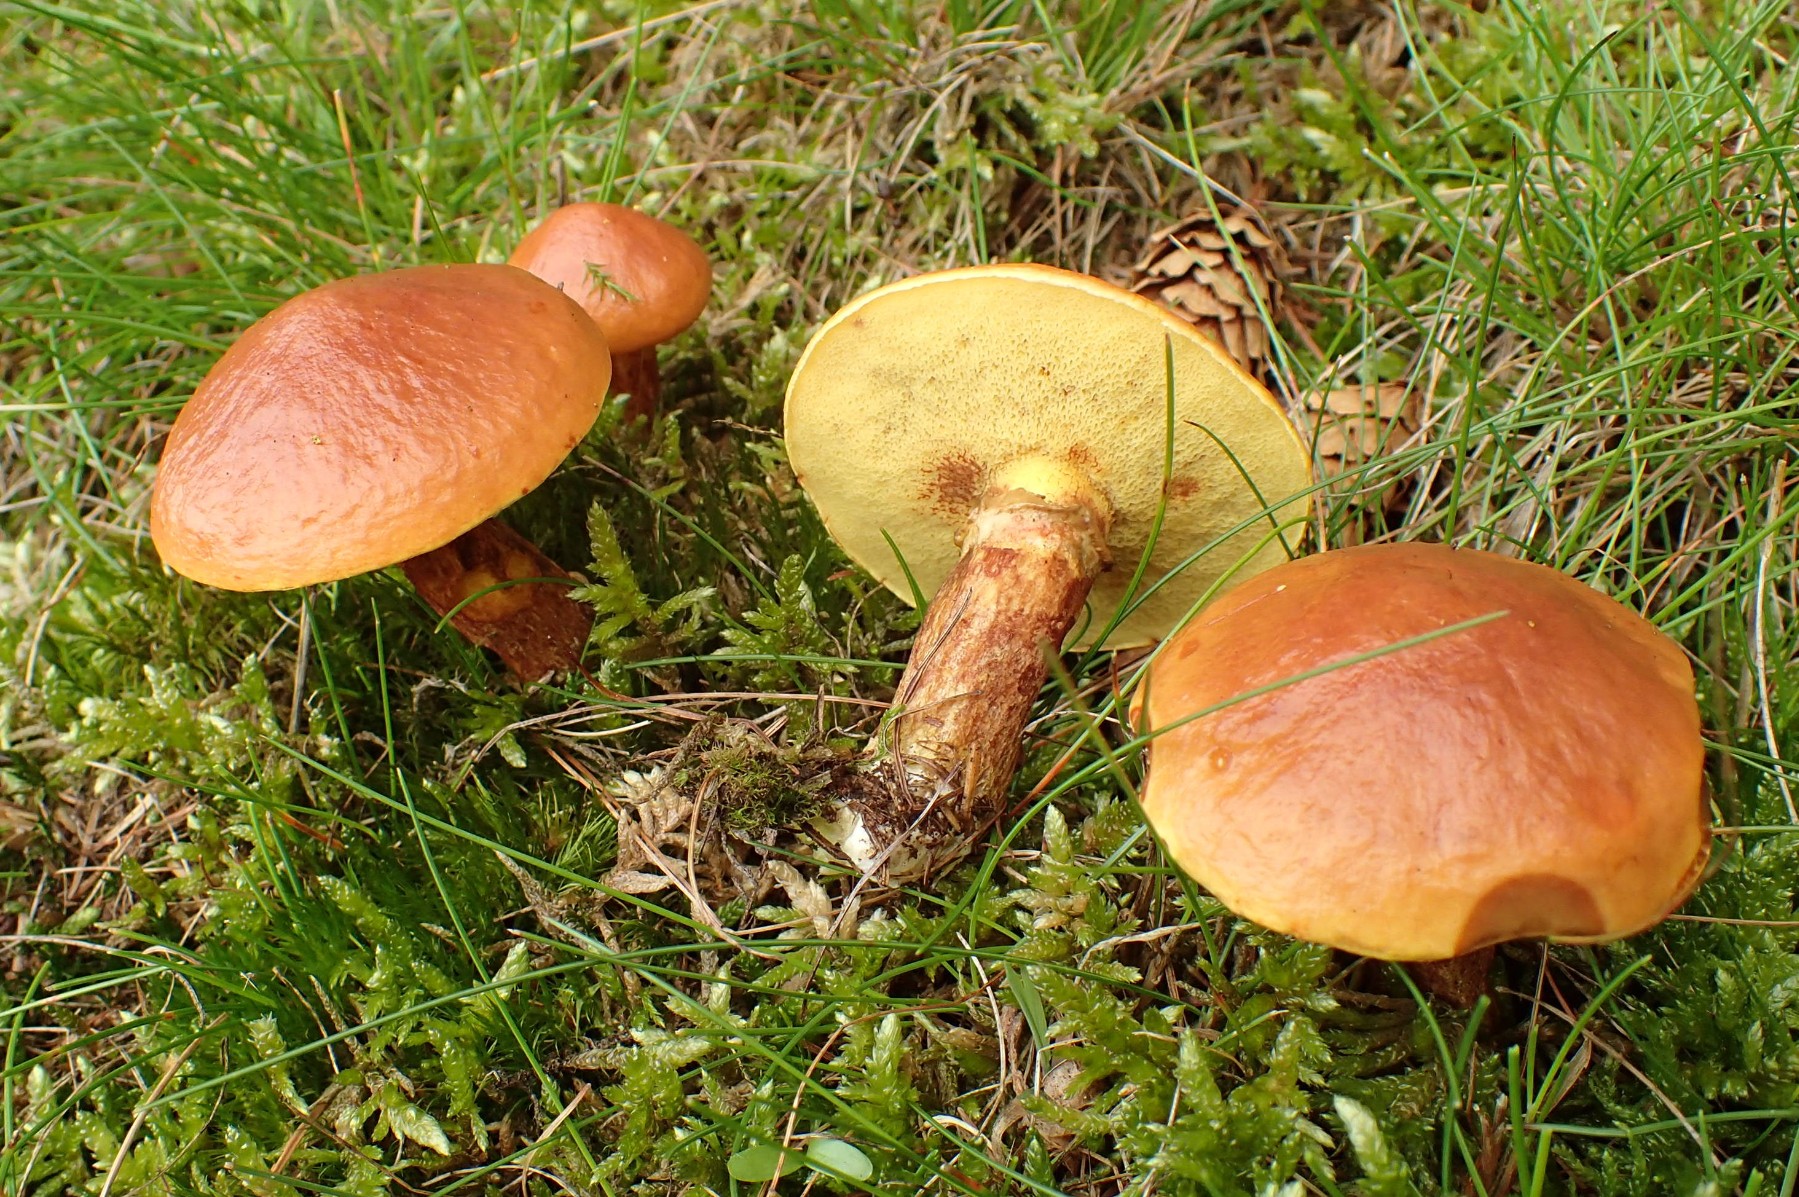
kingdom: Fungi
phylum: Basidiomycota
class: Agaricomycetes
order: Boletales
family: Suillaceae
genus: Suillus
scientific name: Suillus grevillei
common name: lærke-slimrørhat
